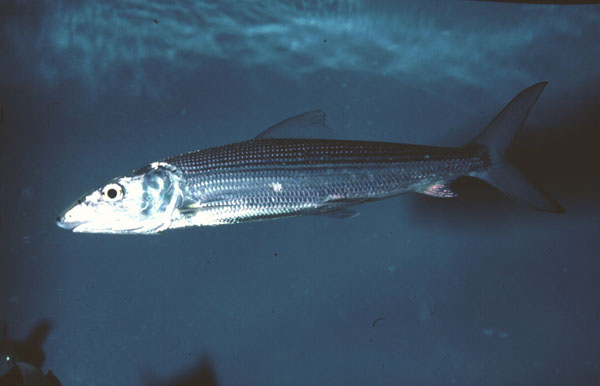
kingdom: Animalia
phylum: Chordata
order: Albuliformes
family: Albulidae
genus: Albula
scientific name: Albula
